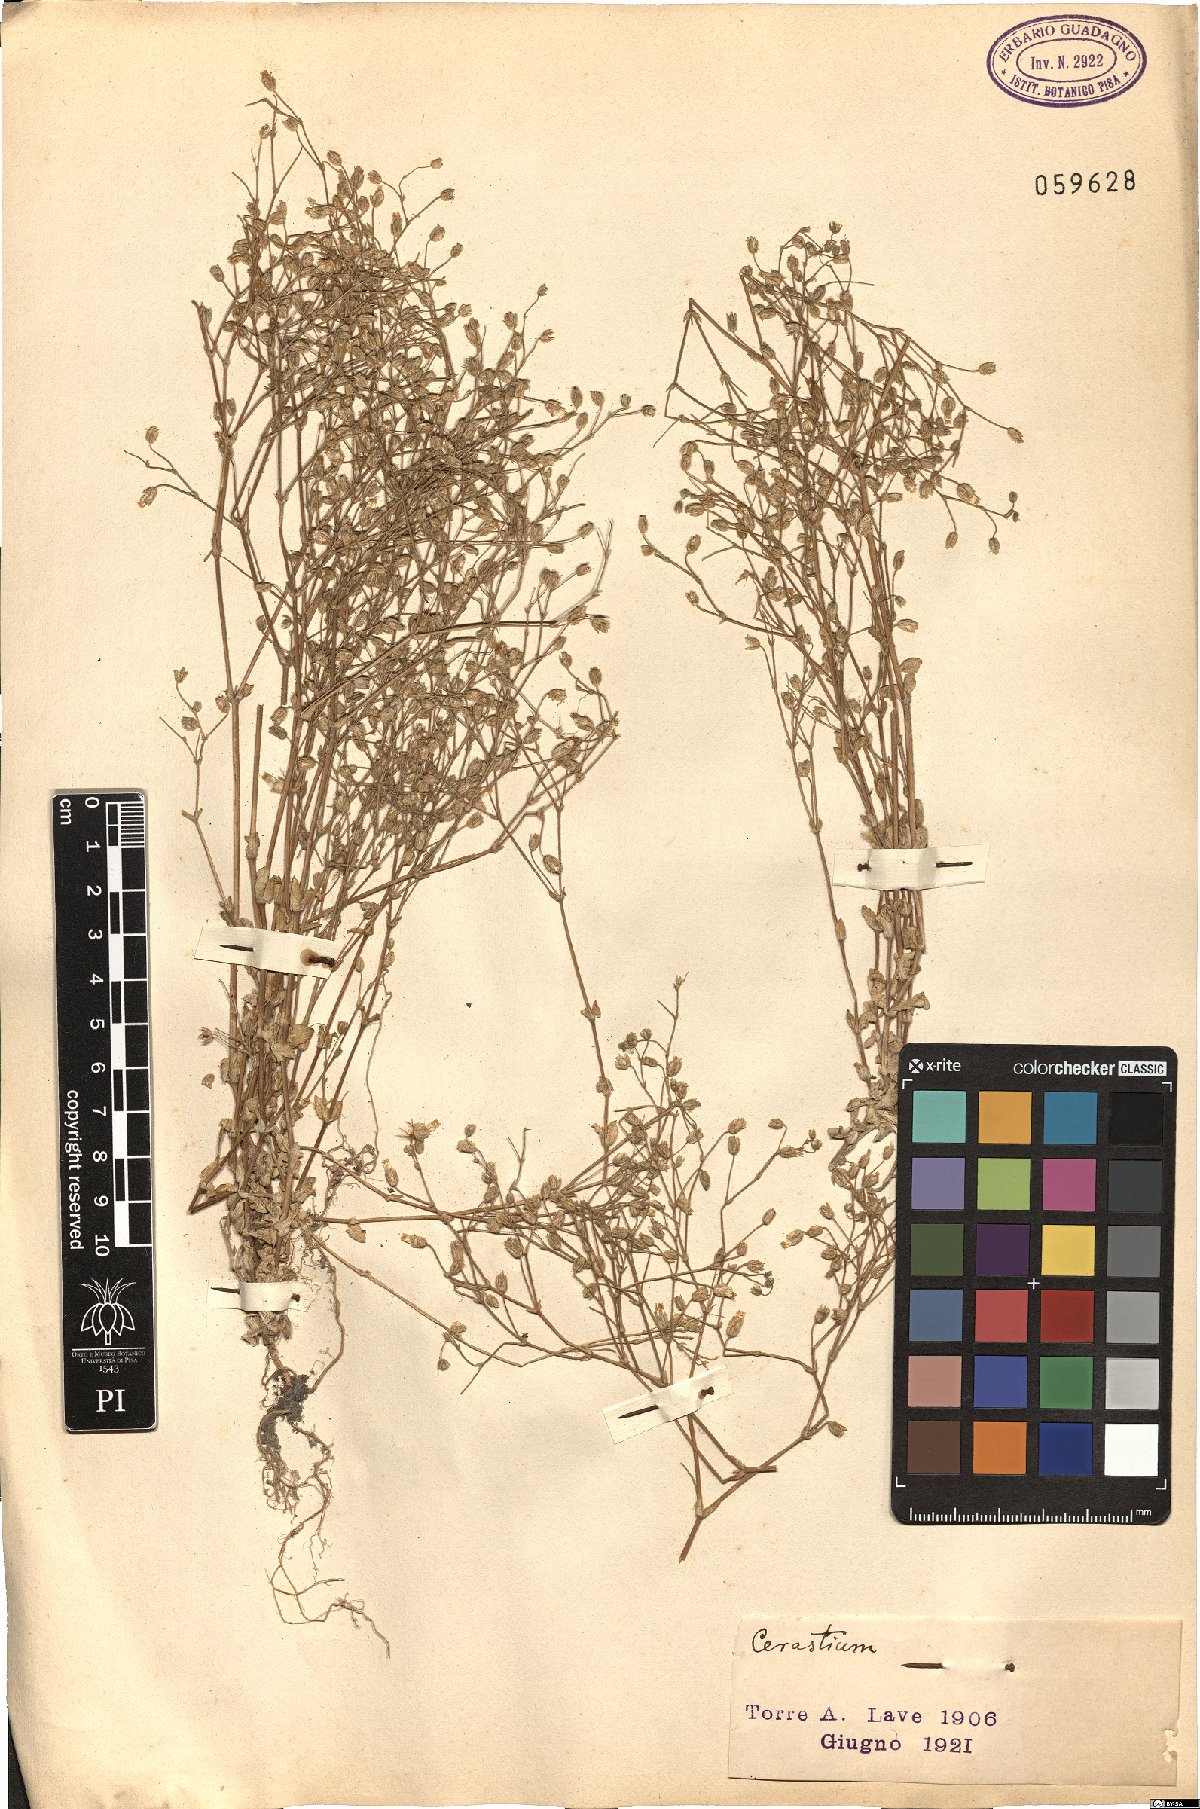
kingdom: Plantae
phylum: Tracheophyta
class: Magnoliopsida
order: Caryophyllales
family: Caryophyllaceae
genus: Cerastium
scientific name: Cerastium
